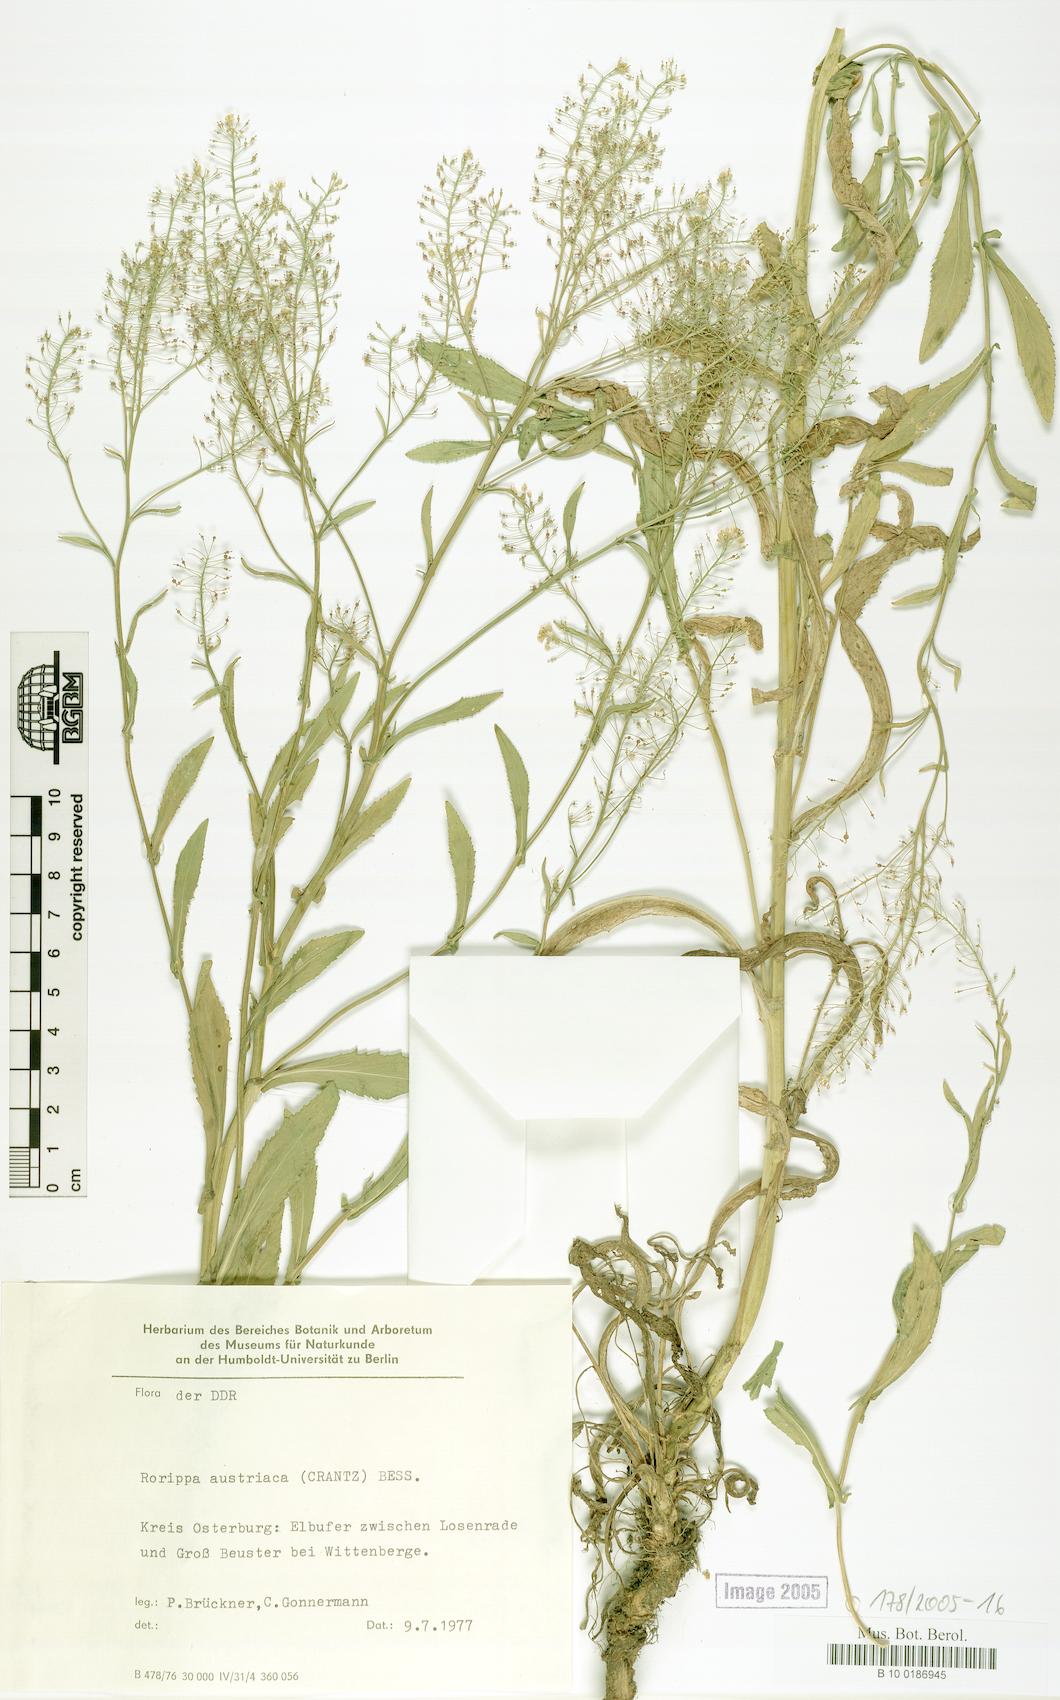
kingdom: Plantae
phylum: Tracheophyta
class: Magnoliopsida
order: Brassicales
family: Brassicaceae
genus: Rorippa
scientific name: Rorippa austriaca
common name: Austrian yellow-cress
